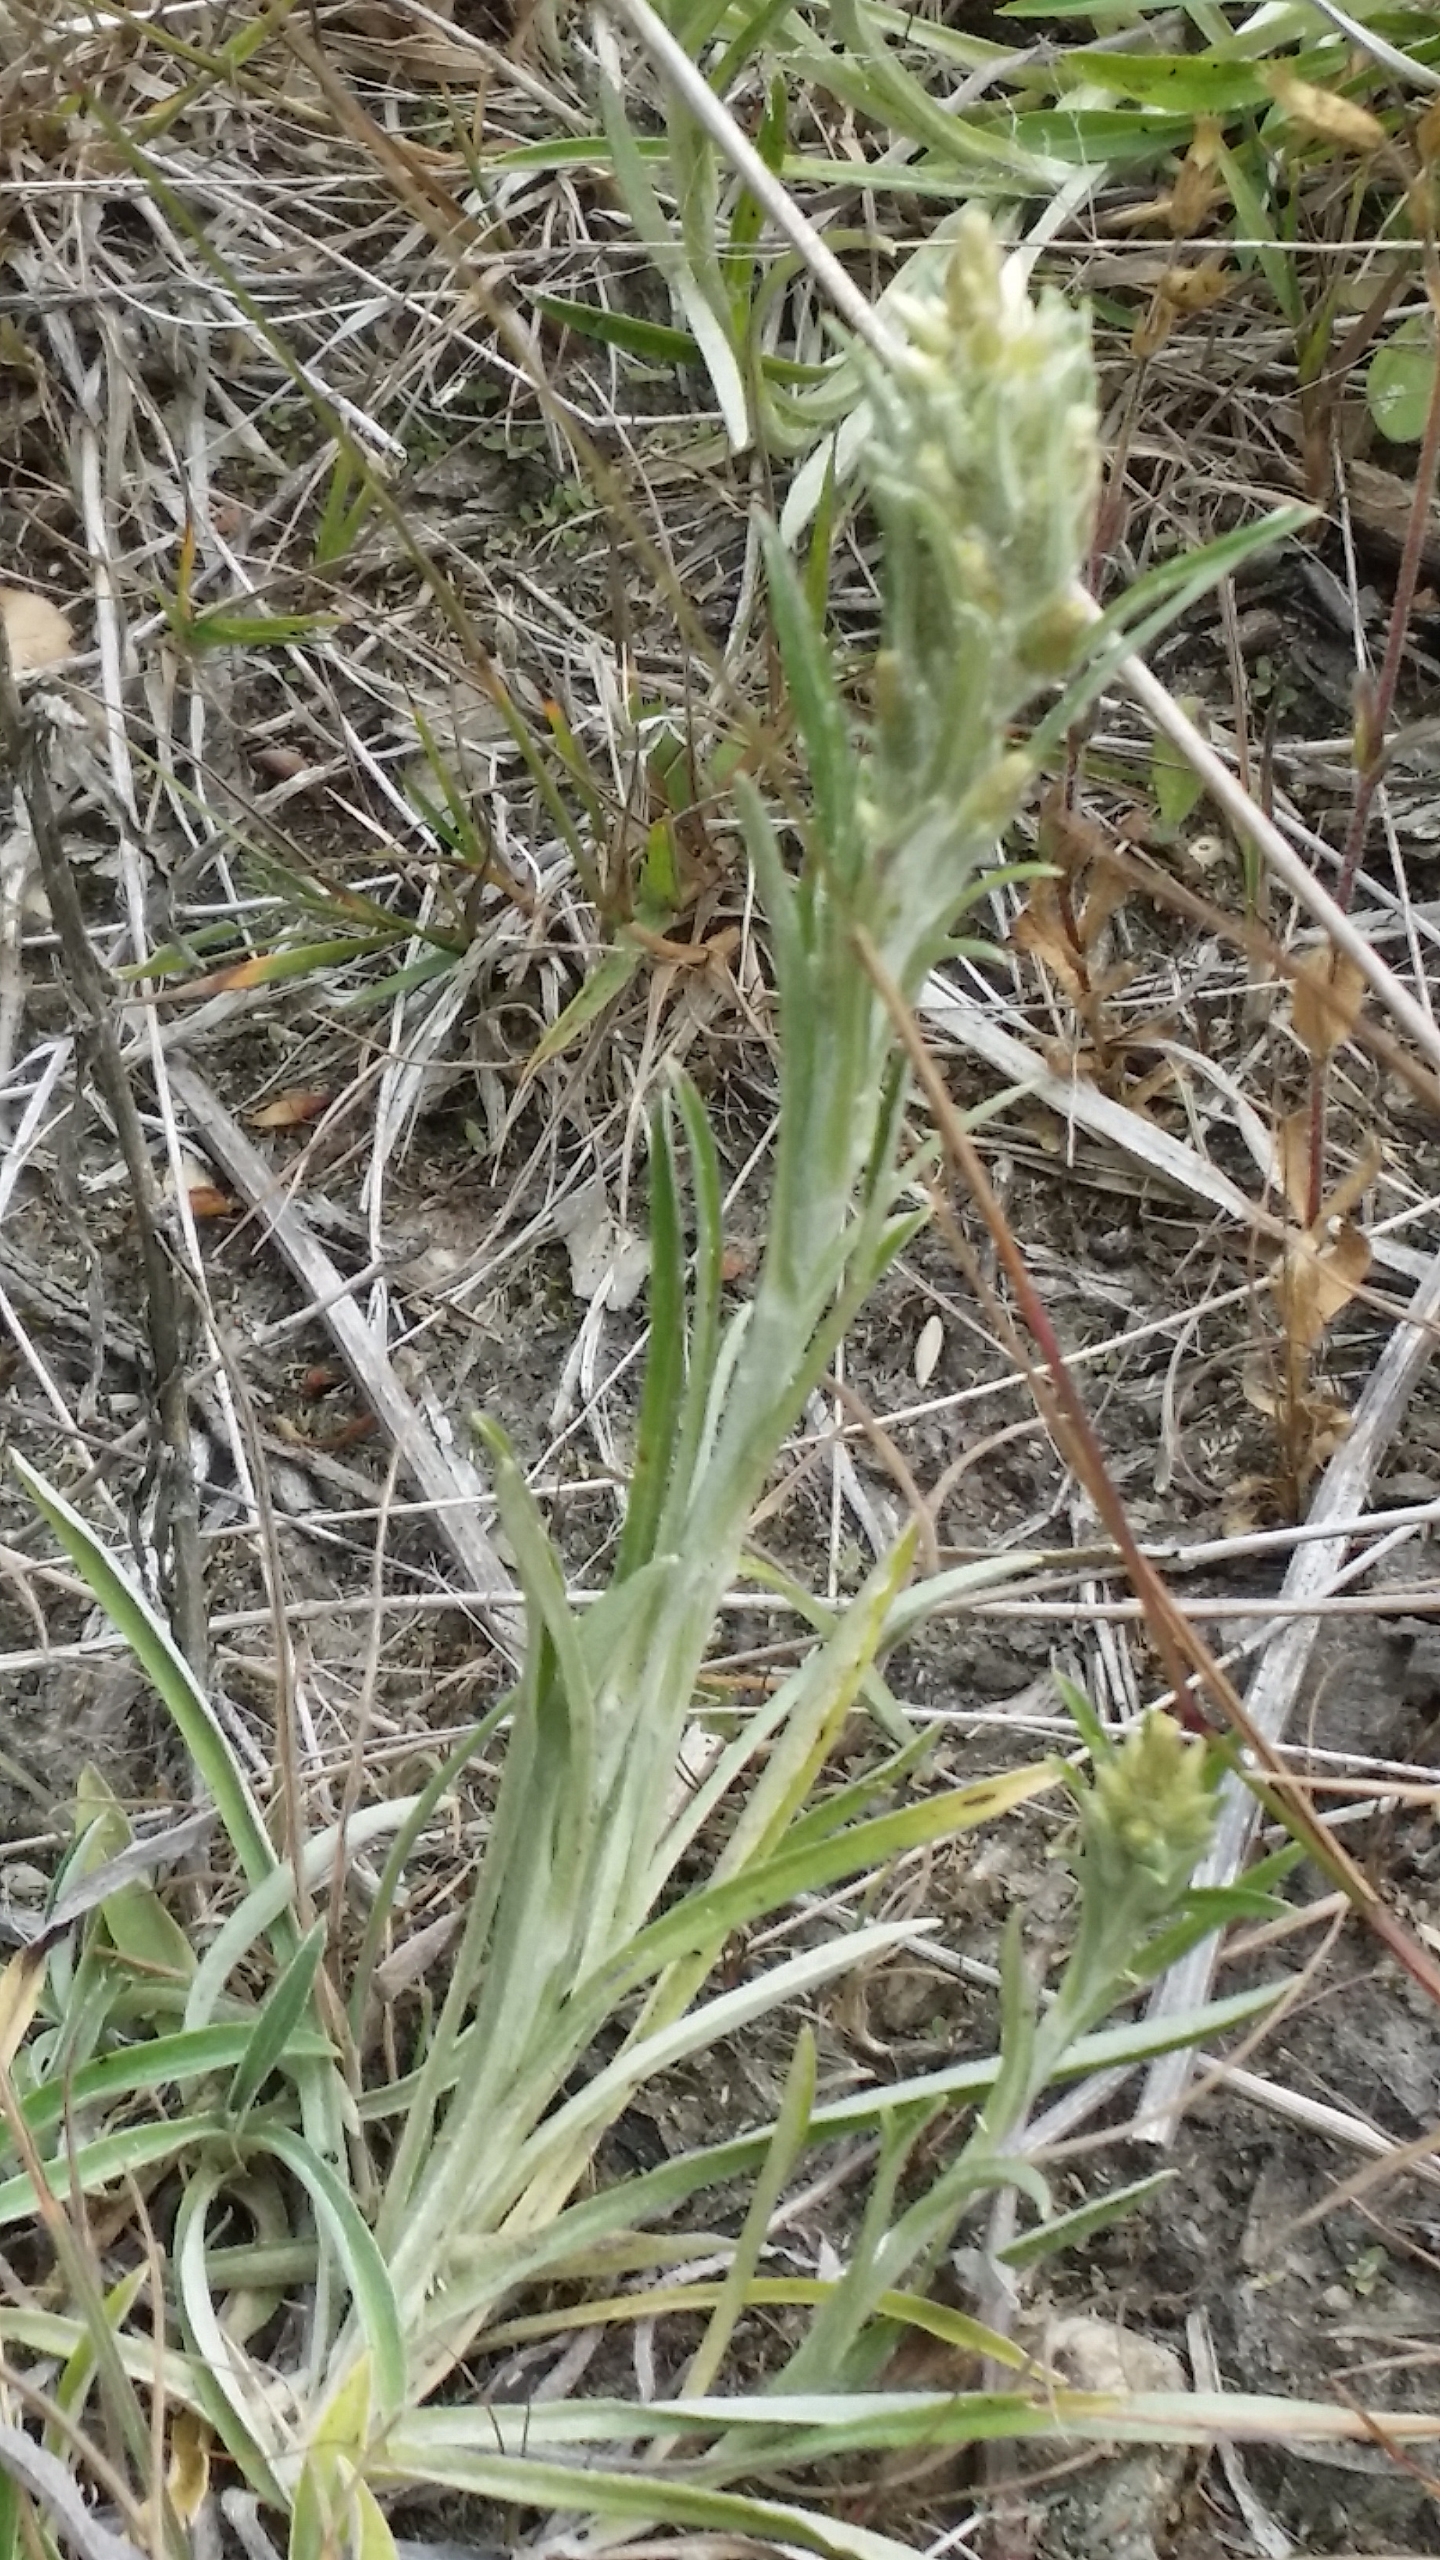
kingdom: Plantae
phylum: Tracheophyta
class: Magnoliopsida
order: Asterales
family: Asteraceae
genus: Omalotheca
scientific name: Omalotheca sylvatica
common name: Rank evighedsblomst
